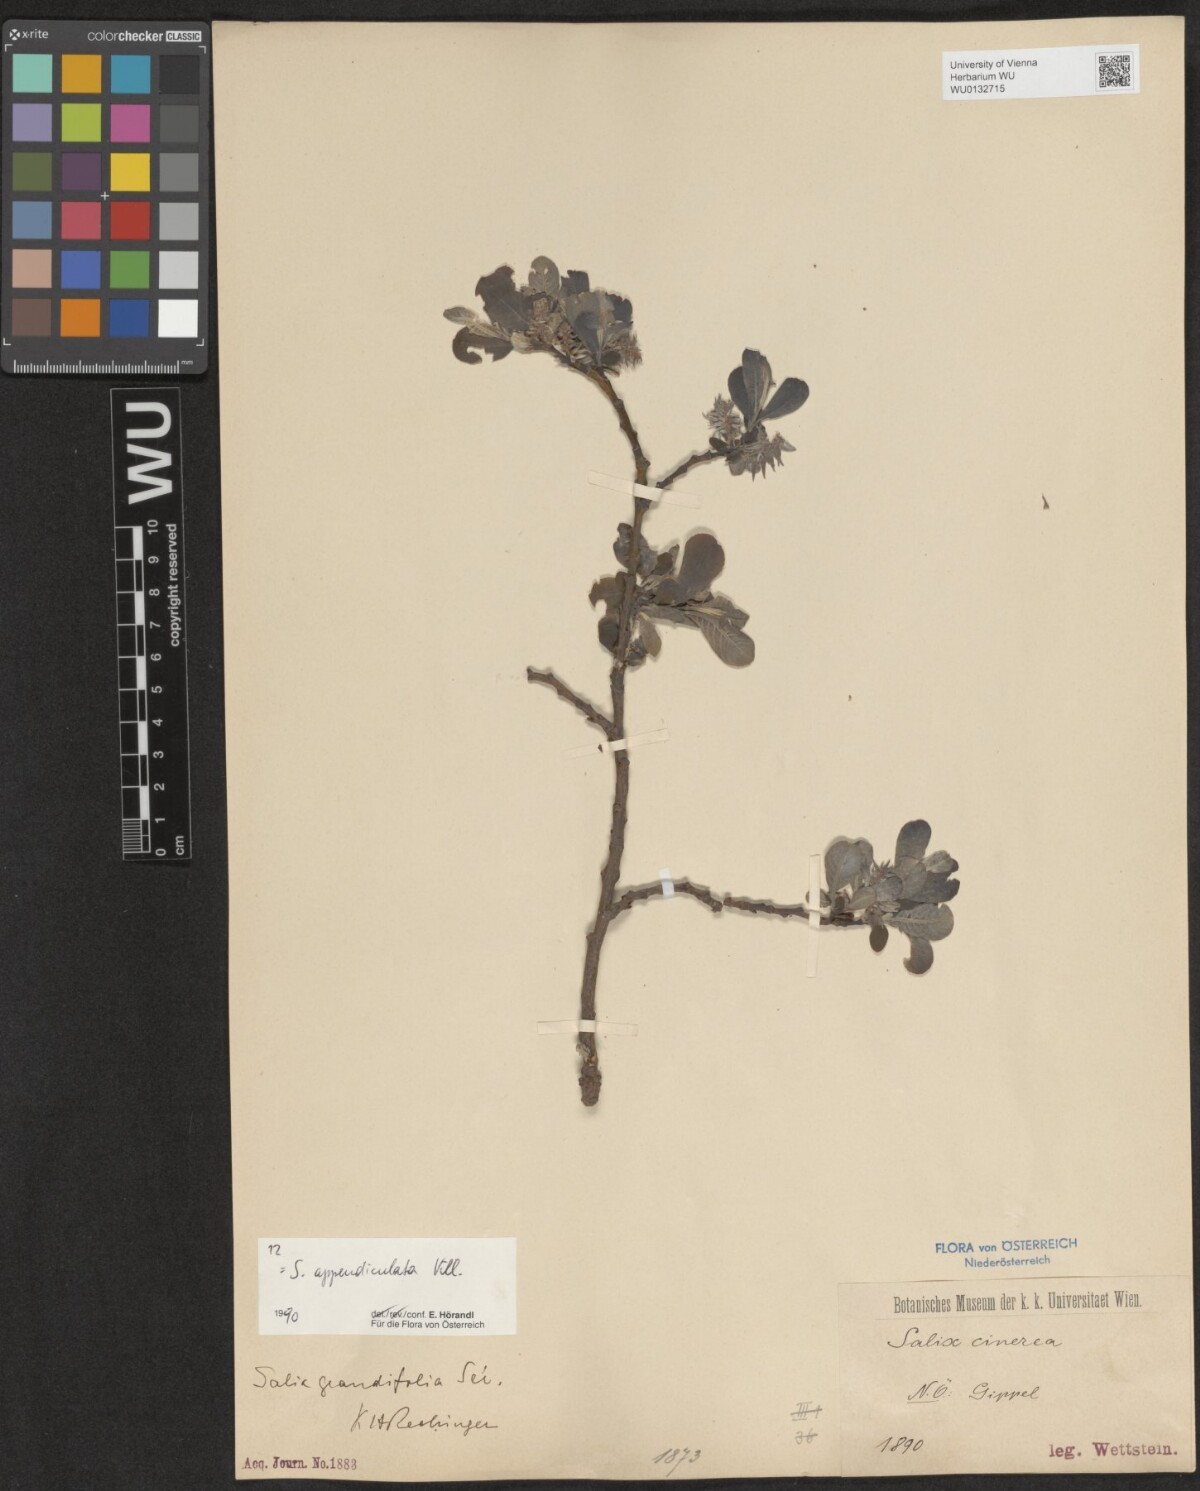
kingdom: Plantae
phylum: Tracheophyta
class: Magnoliopsida
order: Malpighiales
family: Salicaceae
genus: Salix
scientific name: Salix appendiculata
